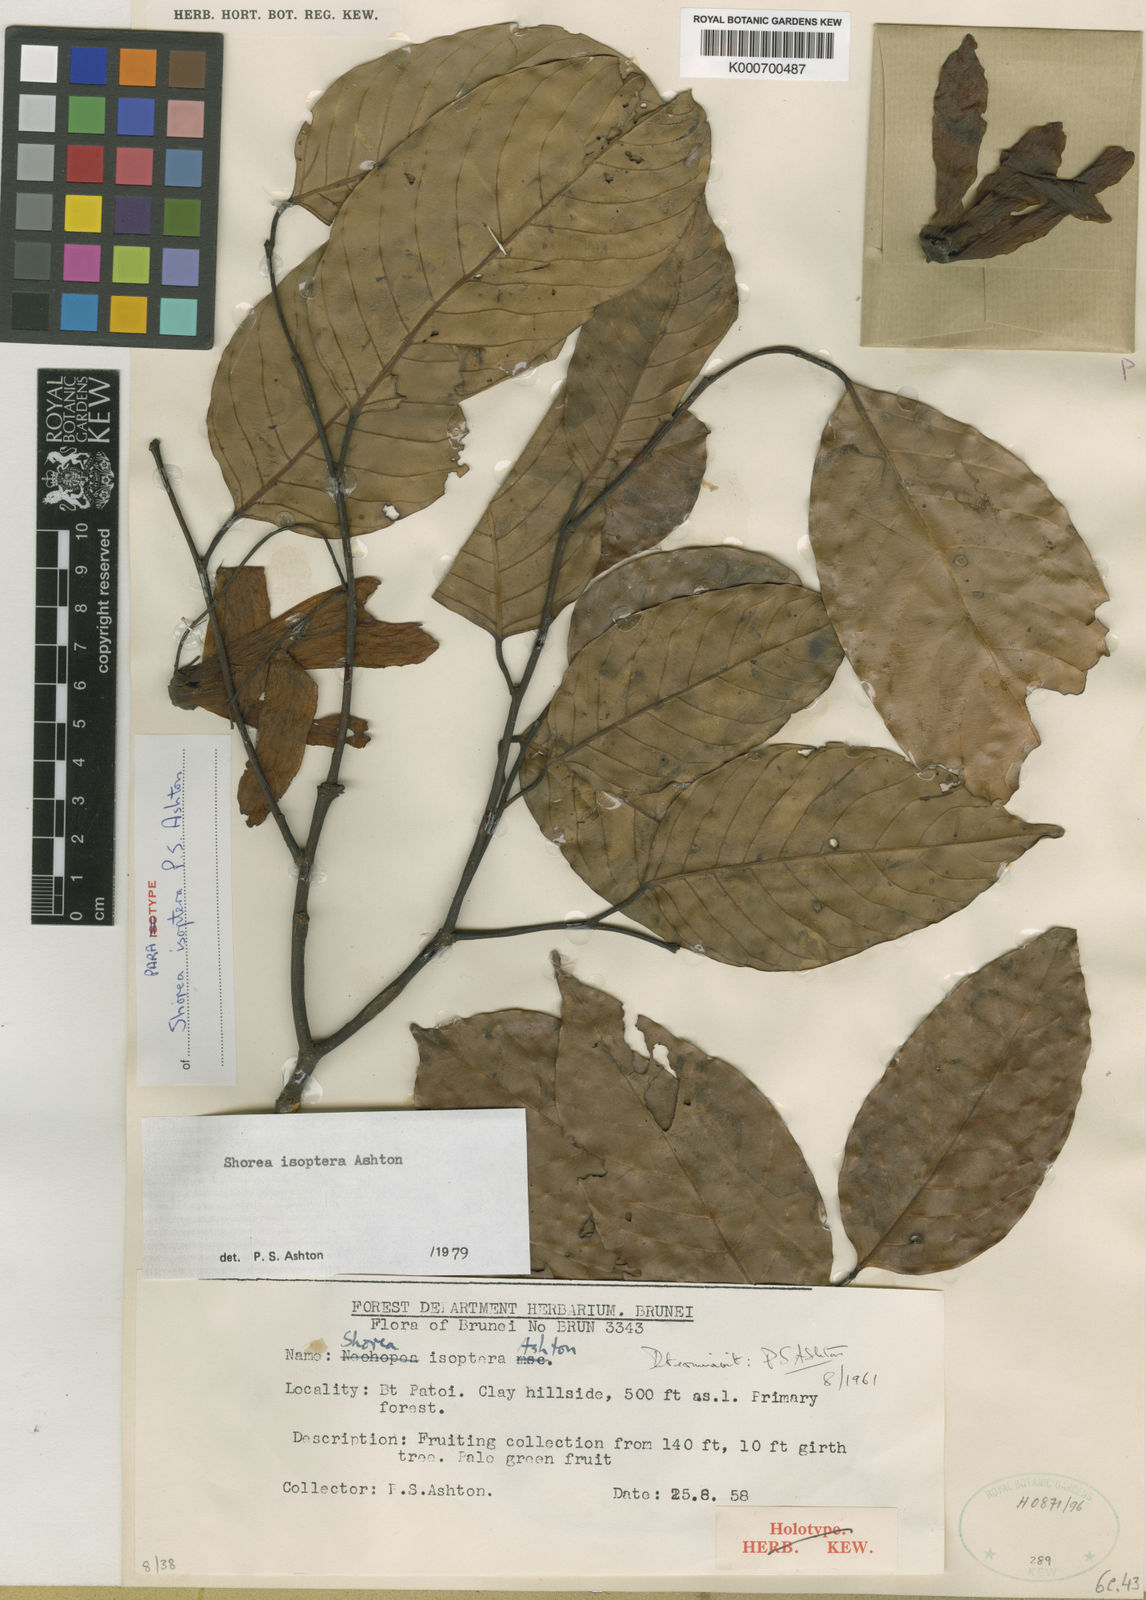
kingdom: Plantae
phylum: Tracheophyta
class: Magnoliopsida
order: Malvales
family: Dipterocarpaceae
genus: Neohopea
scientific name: Neohopea isoptera
